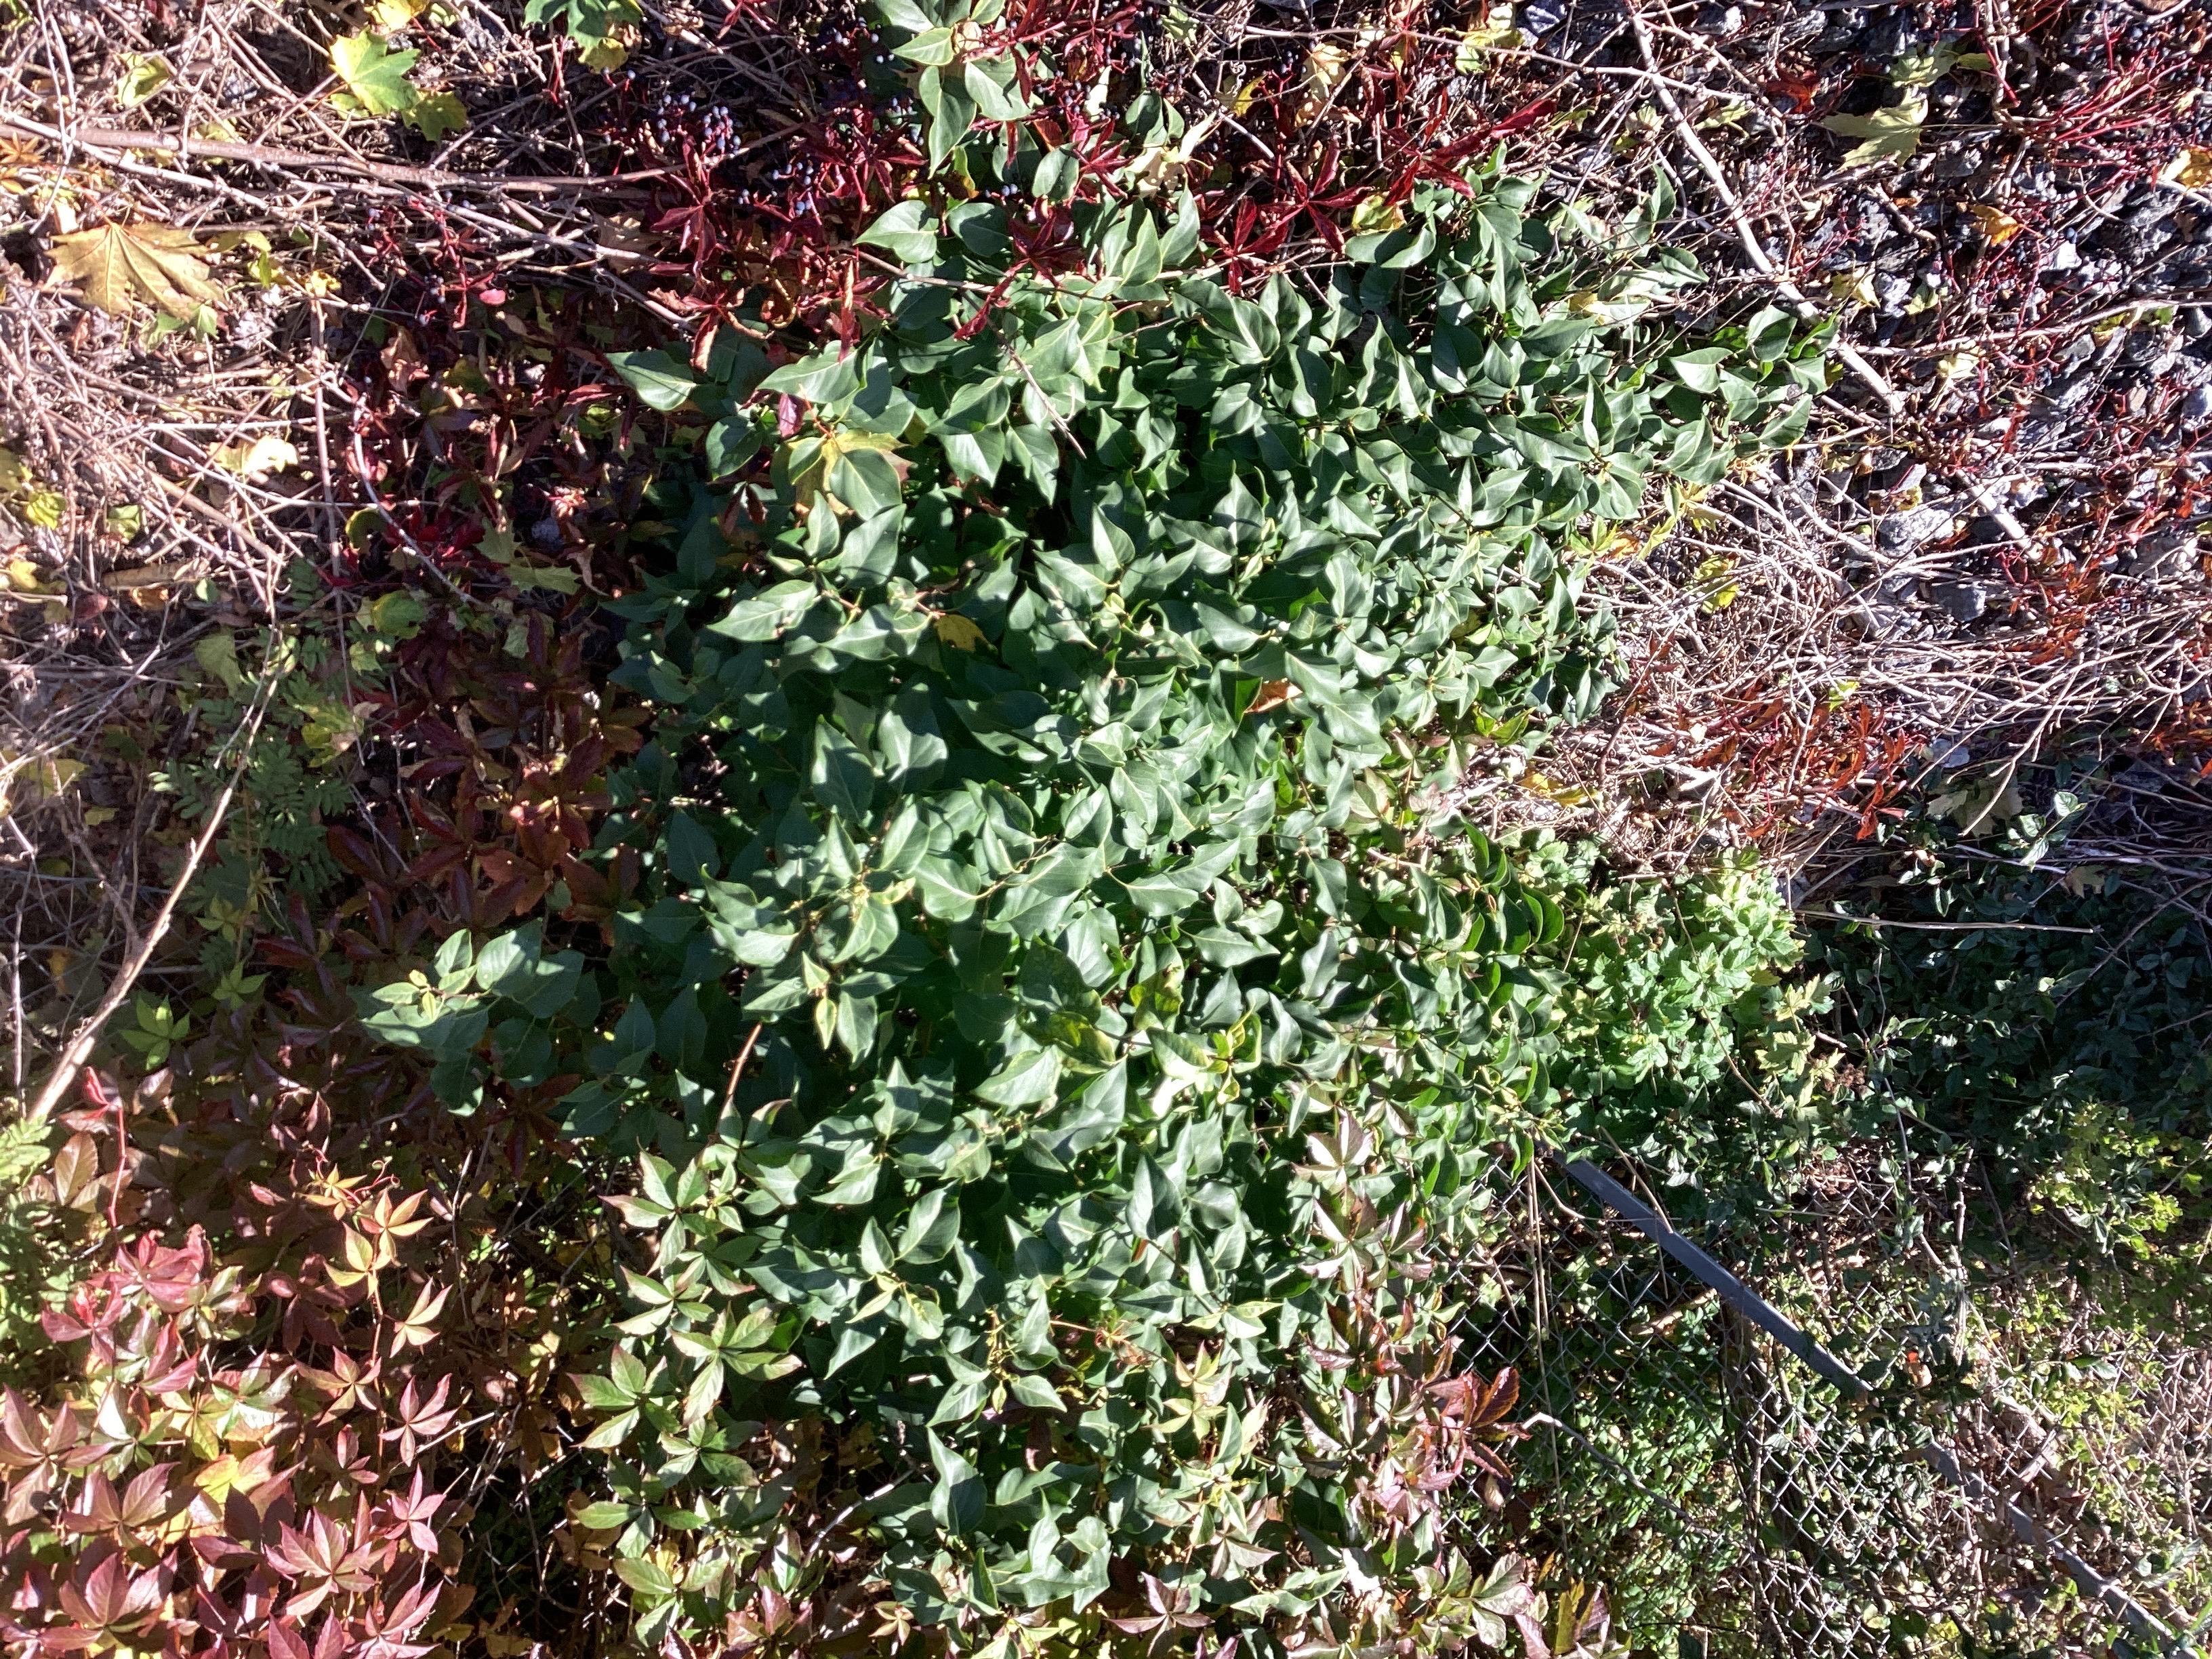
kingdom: Plantae
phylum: Tracheophyta
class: Magnoliopsida
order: Lamiales
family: Oleaceae
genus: Syringa
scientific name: Syringa vulgaris
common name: syrin
